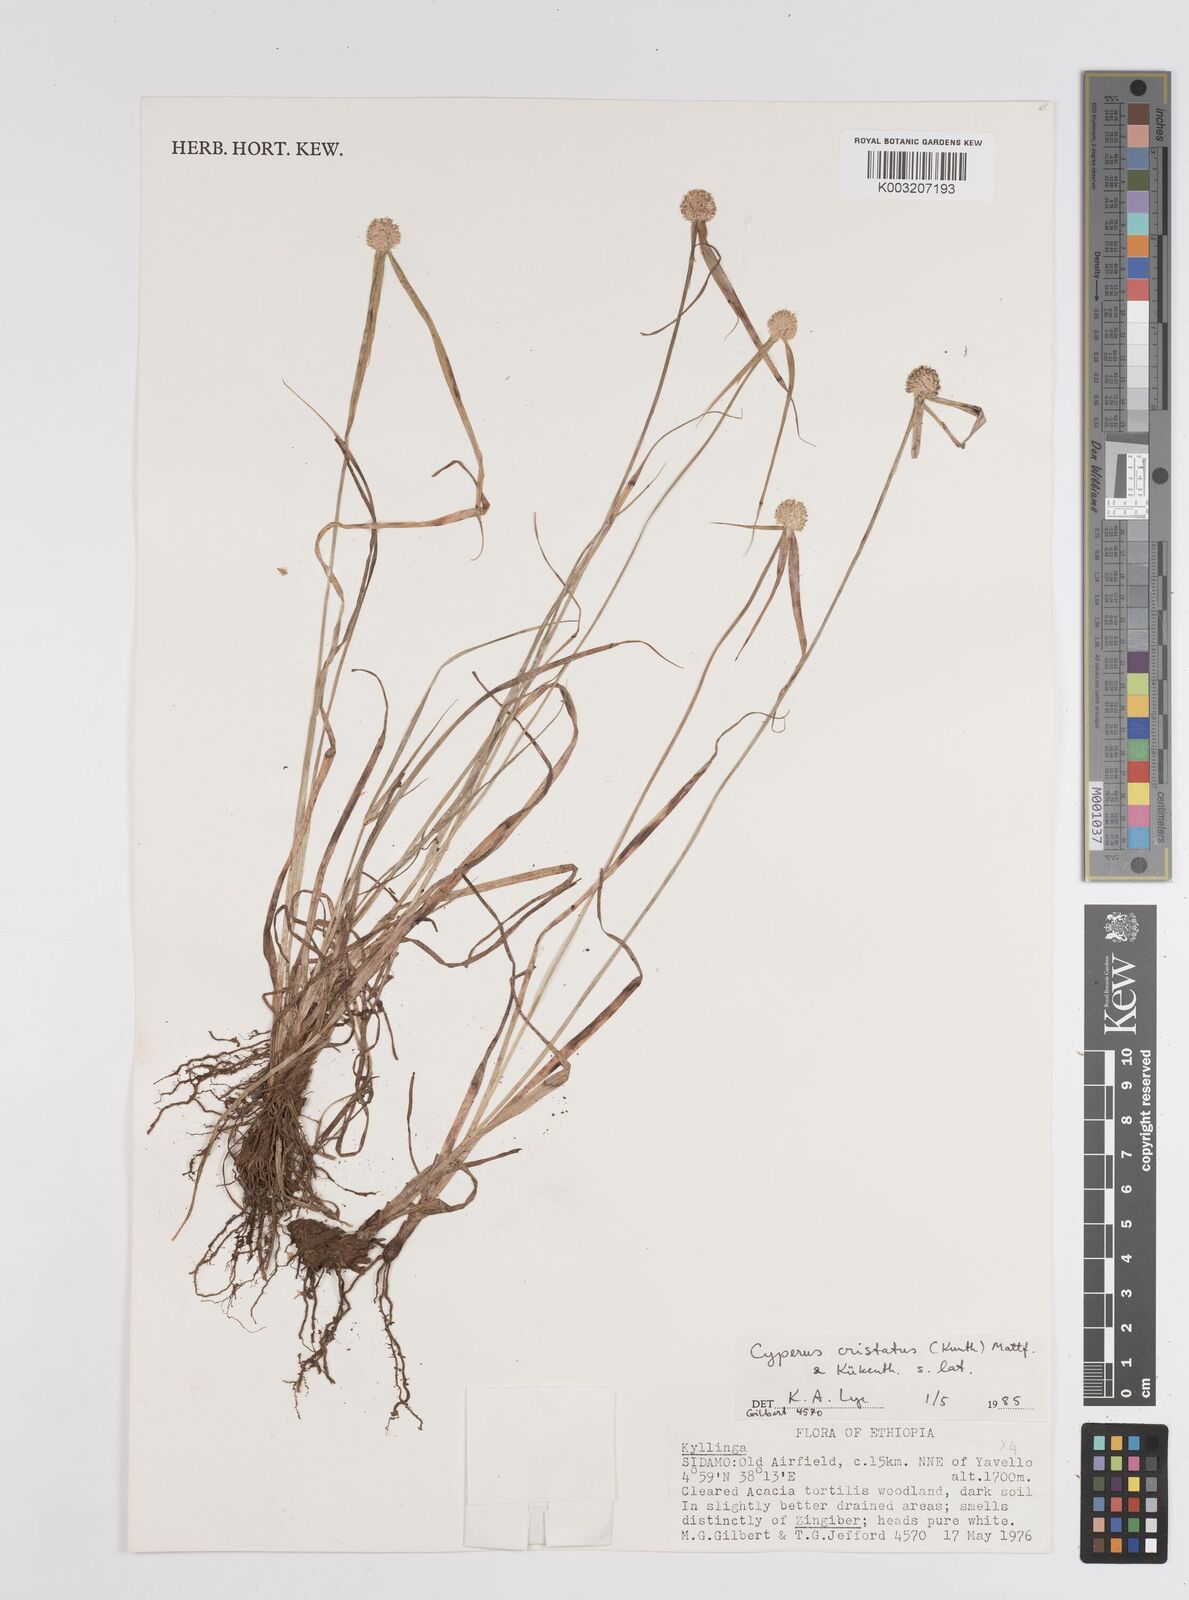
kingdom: Plantae
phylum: Tracheophyta
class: Liliopsida
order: Poales
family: Cyperaceae
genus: Cyperus
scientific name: Cyperus
